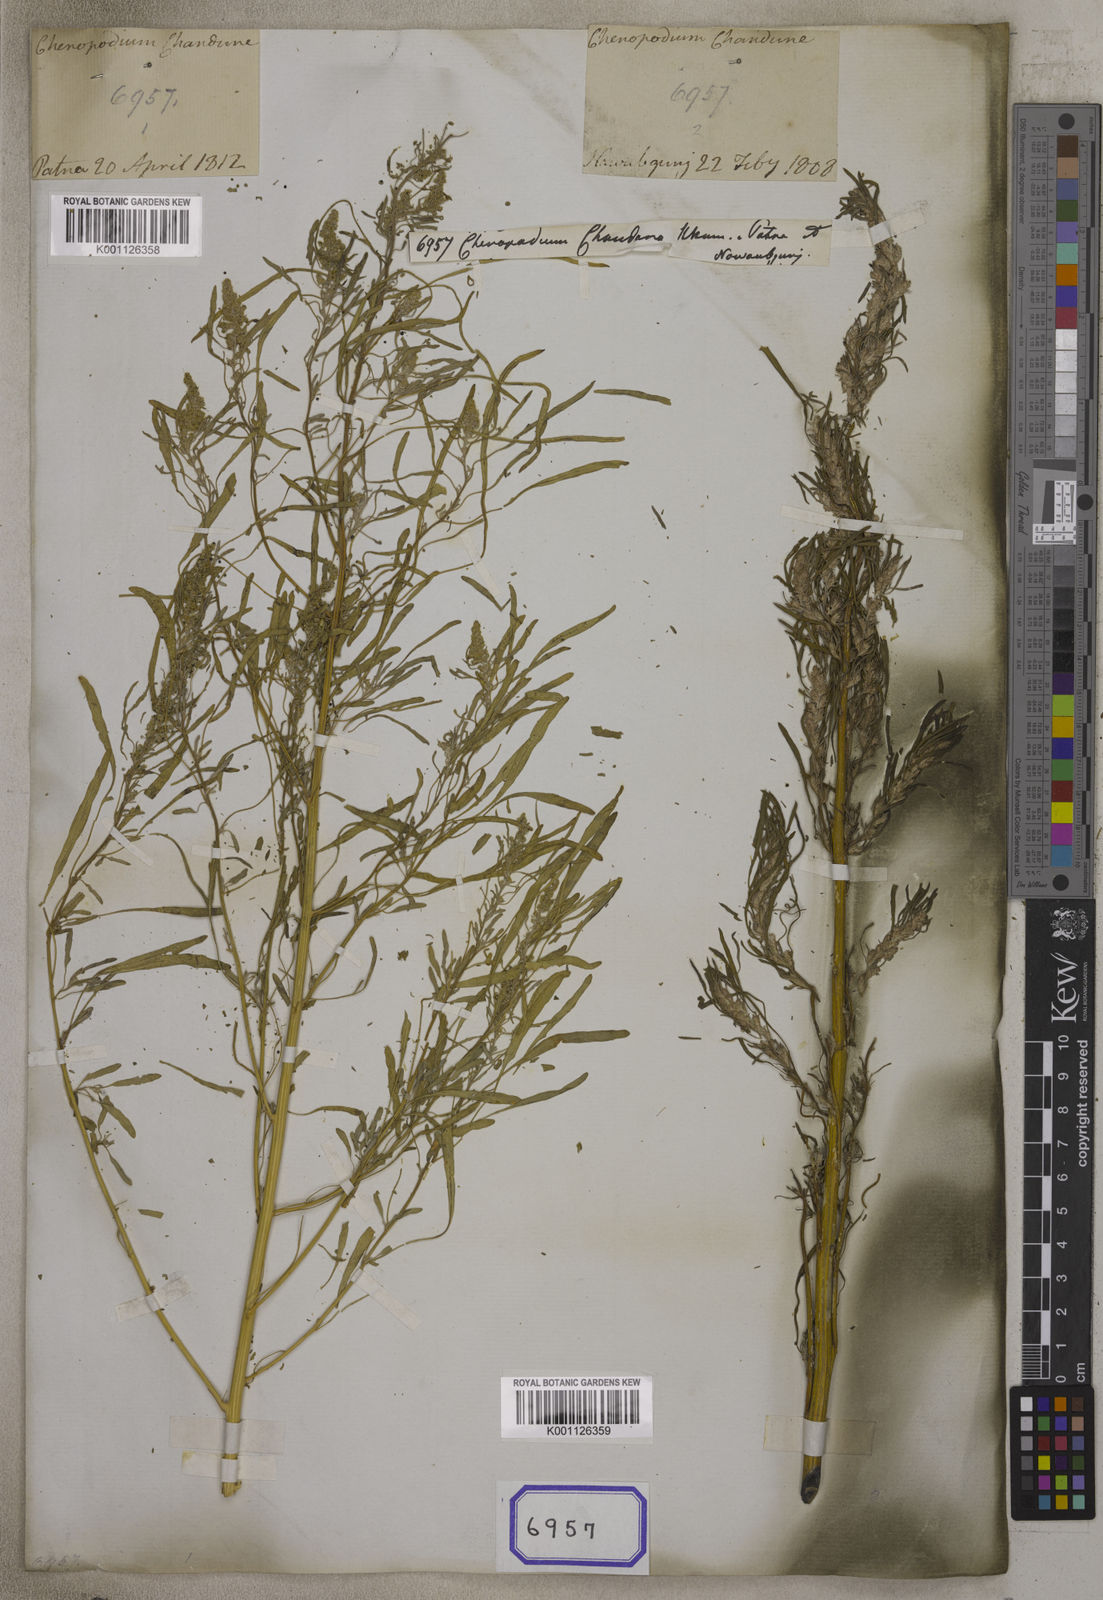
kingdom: Plantae
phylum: Tracheophyta
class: Magnoliopsida
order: Caryophyllales
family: Amaranthaceae
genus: Chenopodium
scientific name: Chenopodium
